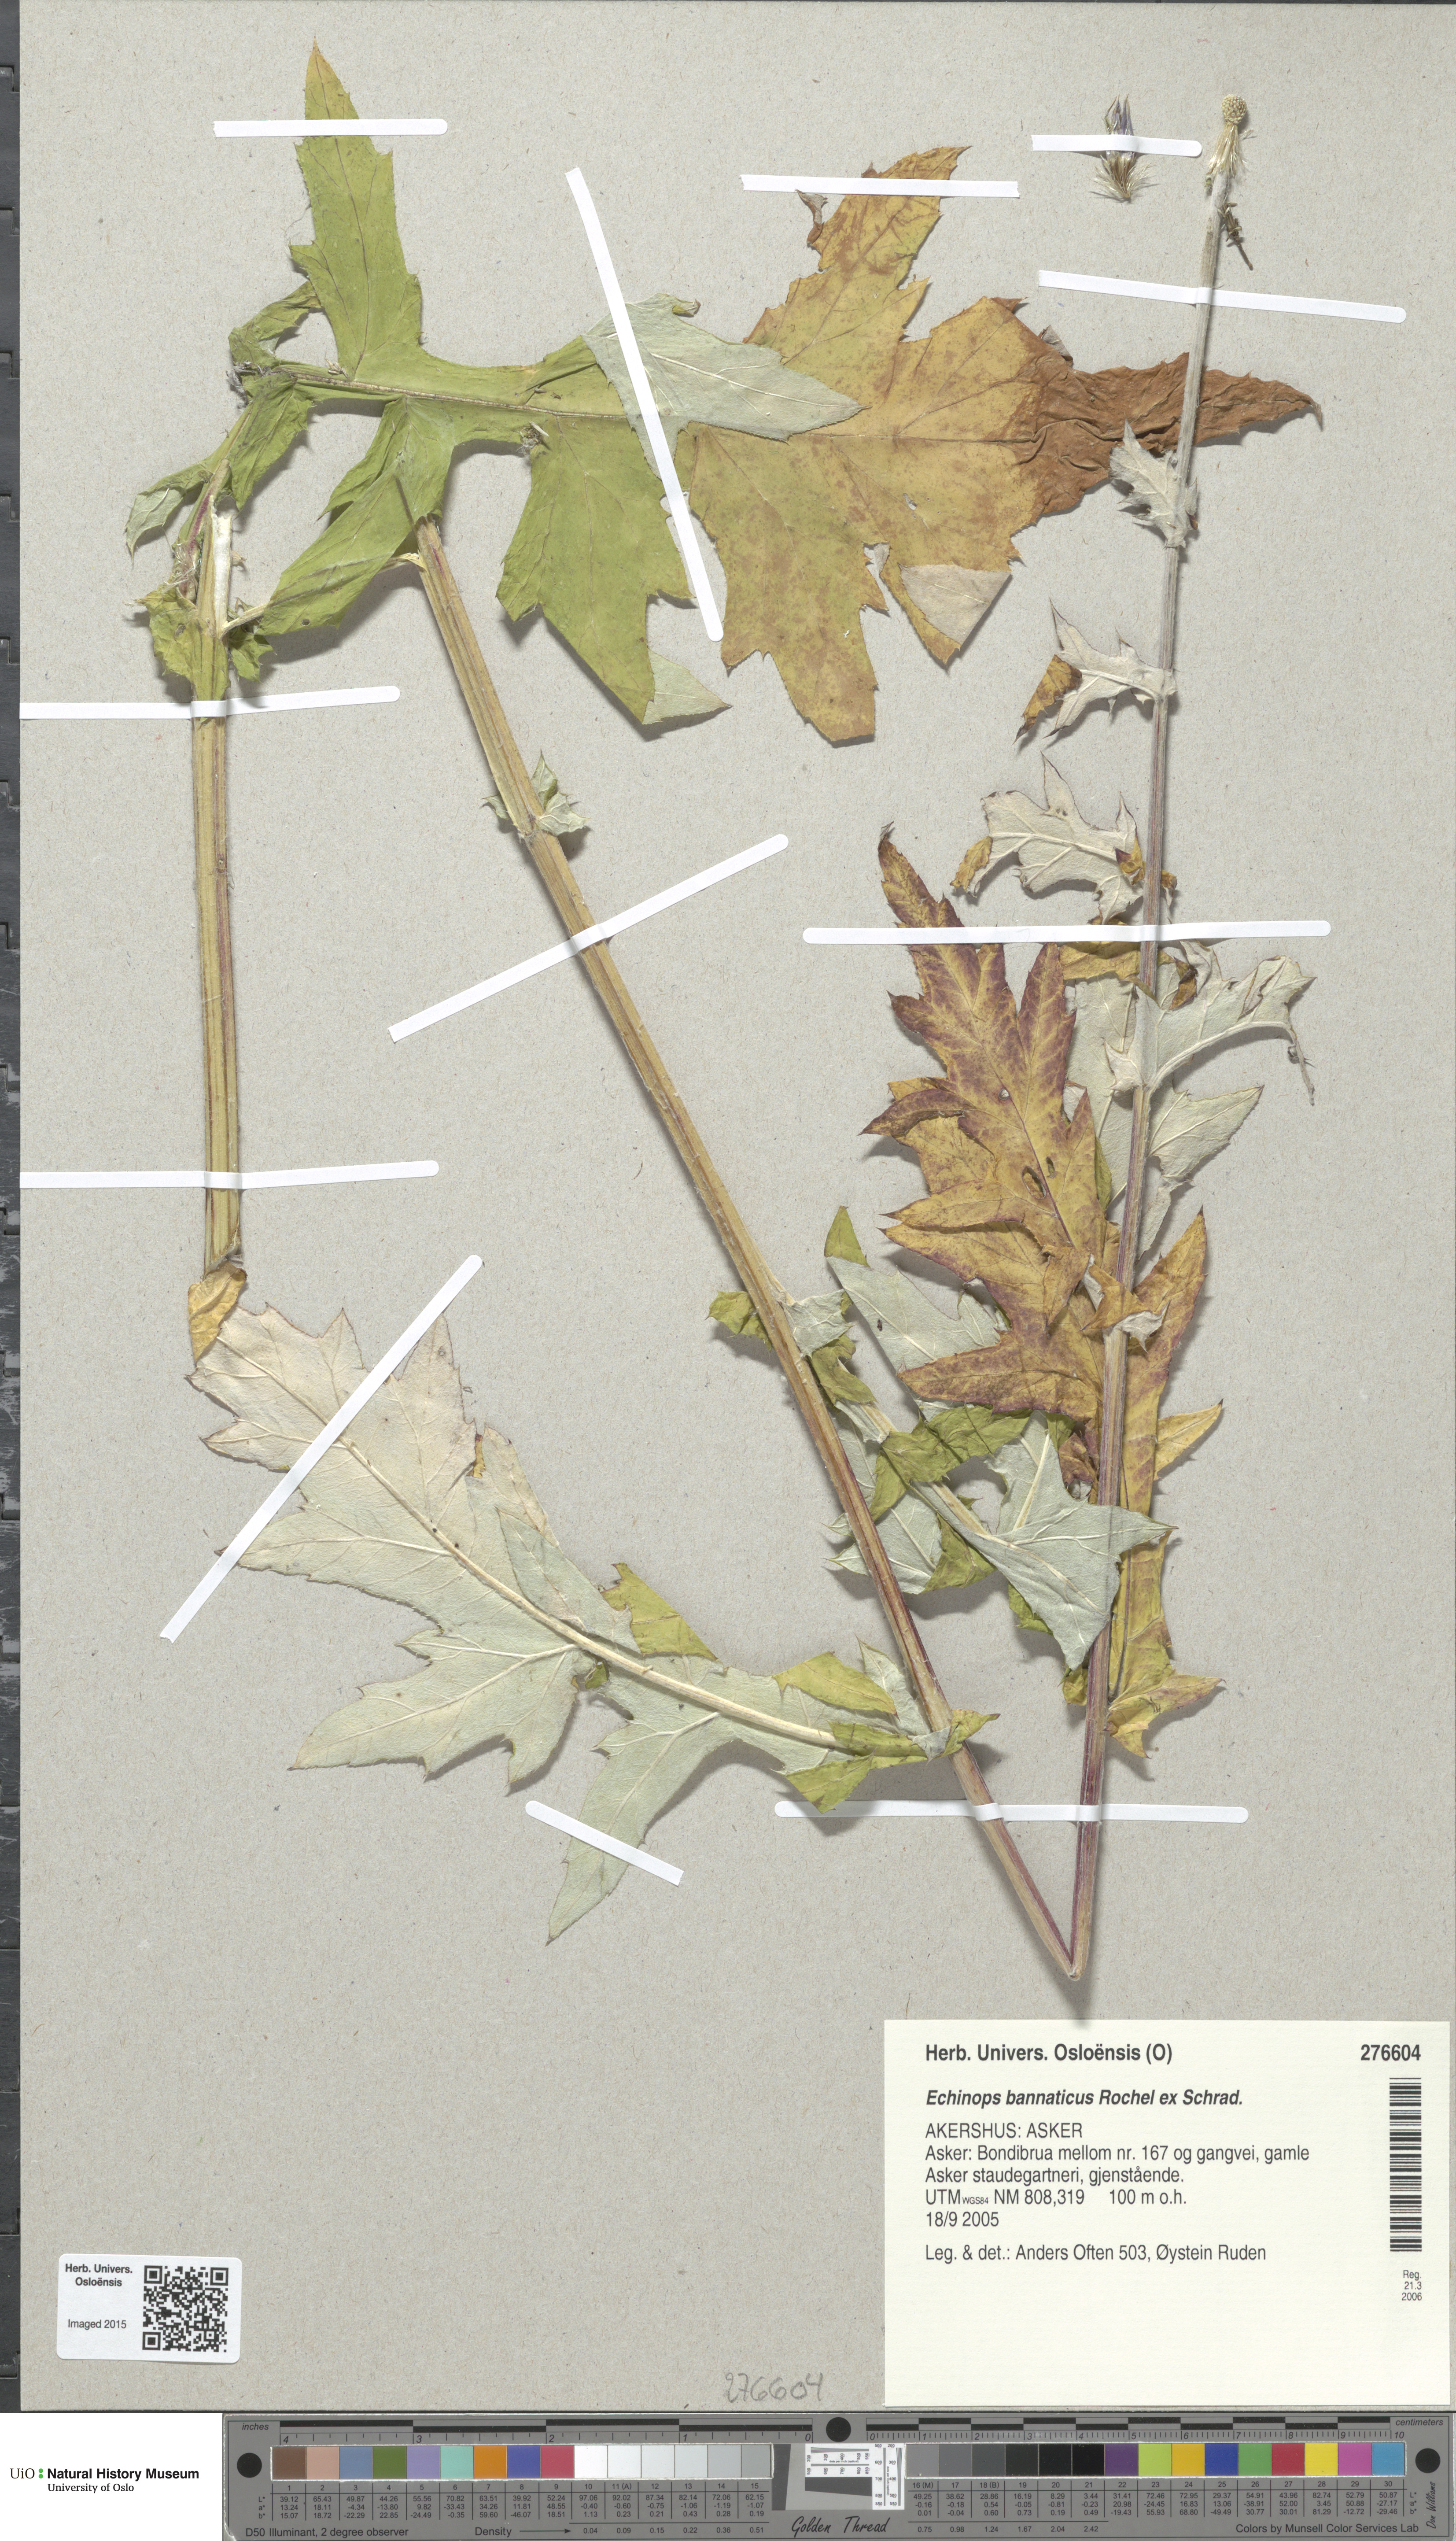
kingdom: Plantae
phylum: Tracheophyta
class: Magnoliopsida
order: Asterales
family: Asteraceae
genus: Echinops
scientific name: Echinops bannaticus
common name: Blue globe-thistle
